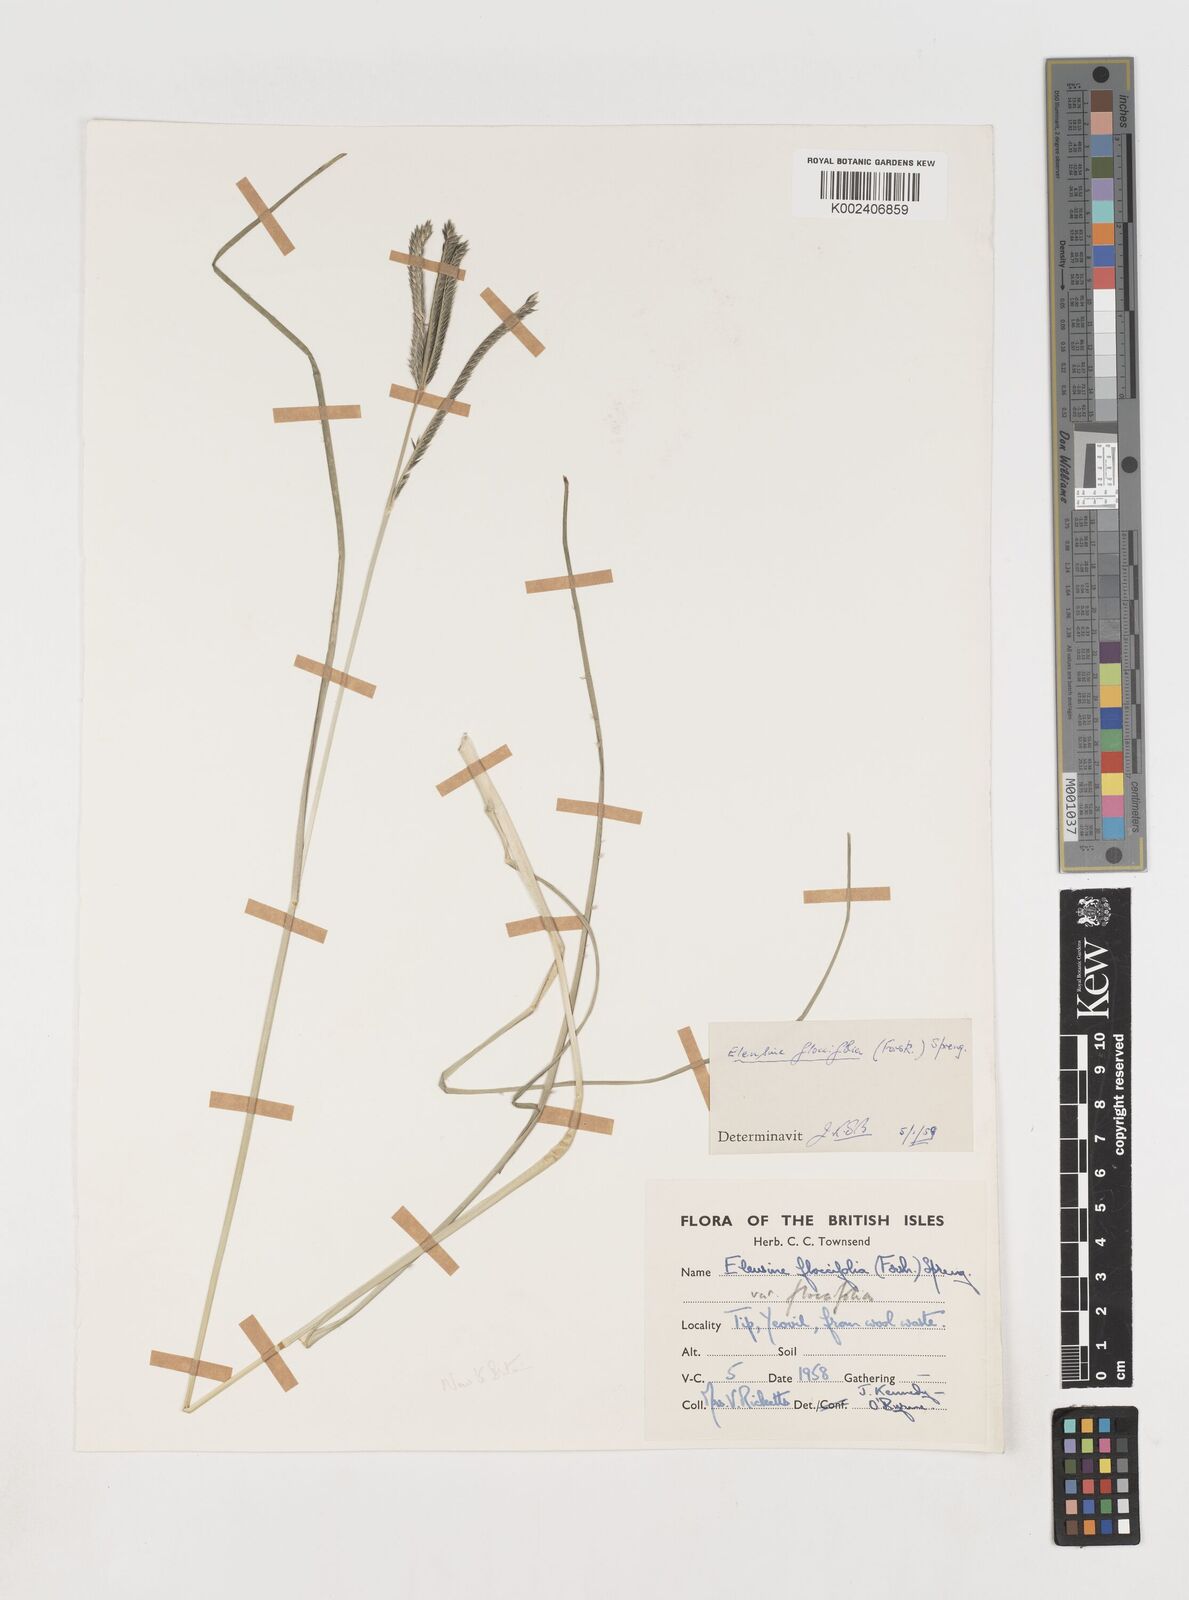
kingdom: Plantae
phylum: Tracheophyta
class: Liliopsida
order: Poales
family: Poaceae
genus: Eleusine
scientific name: Eleusine floccifolia
